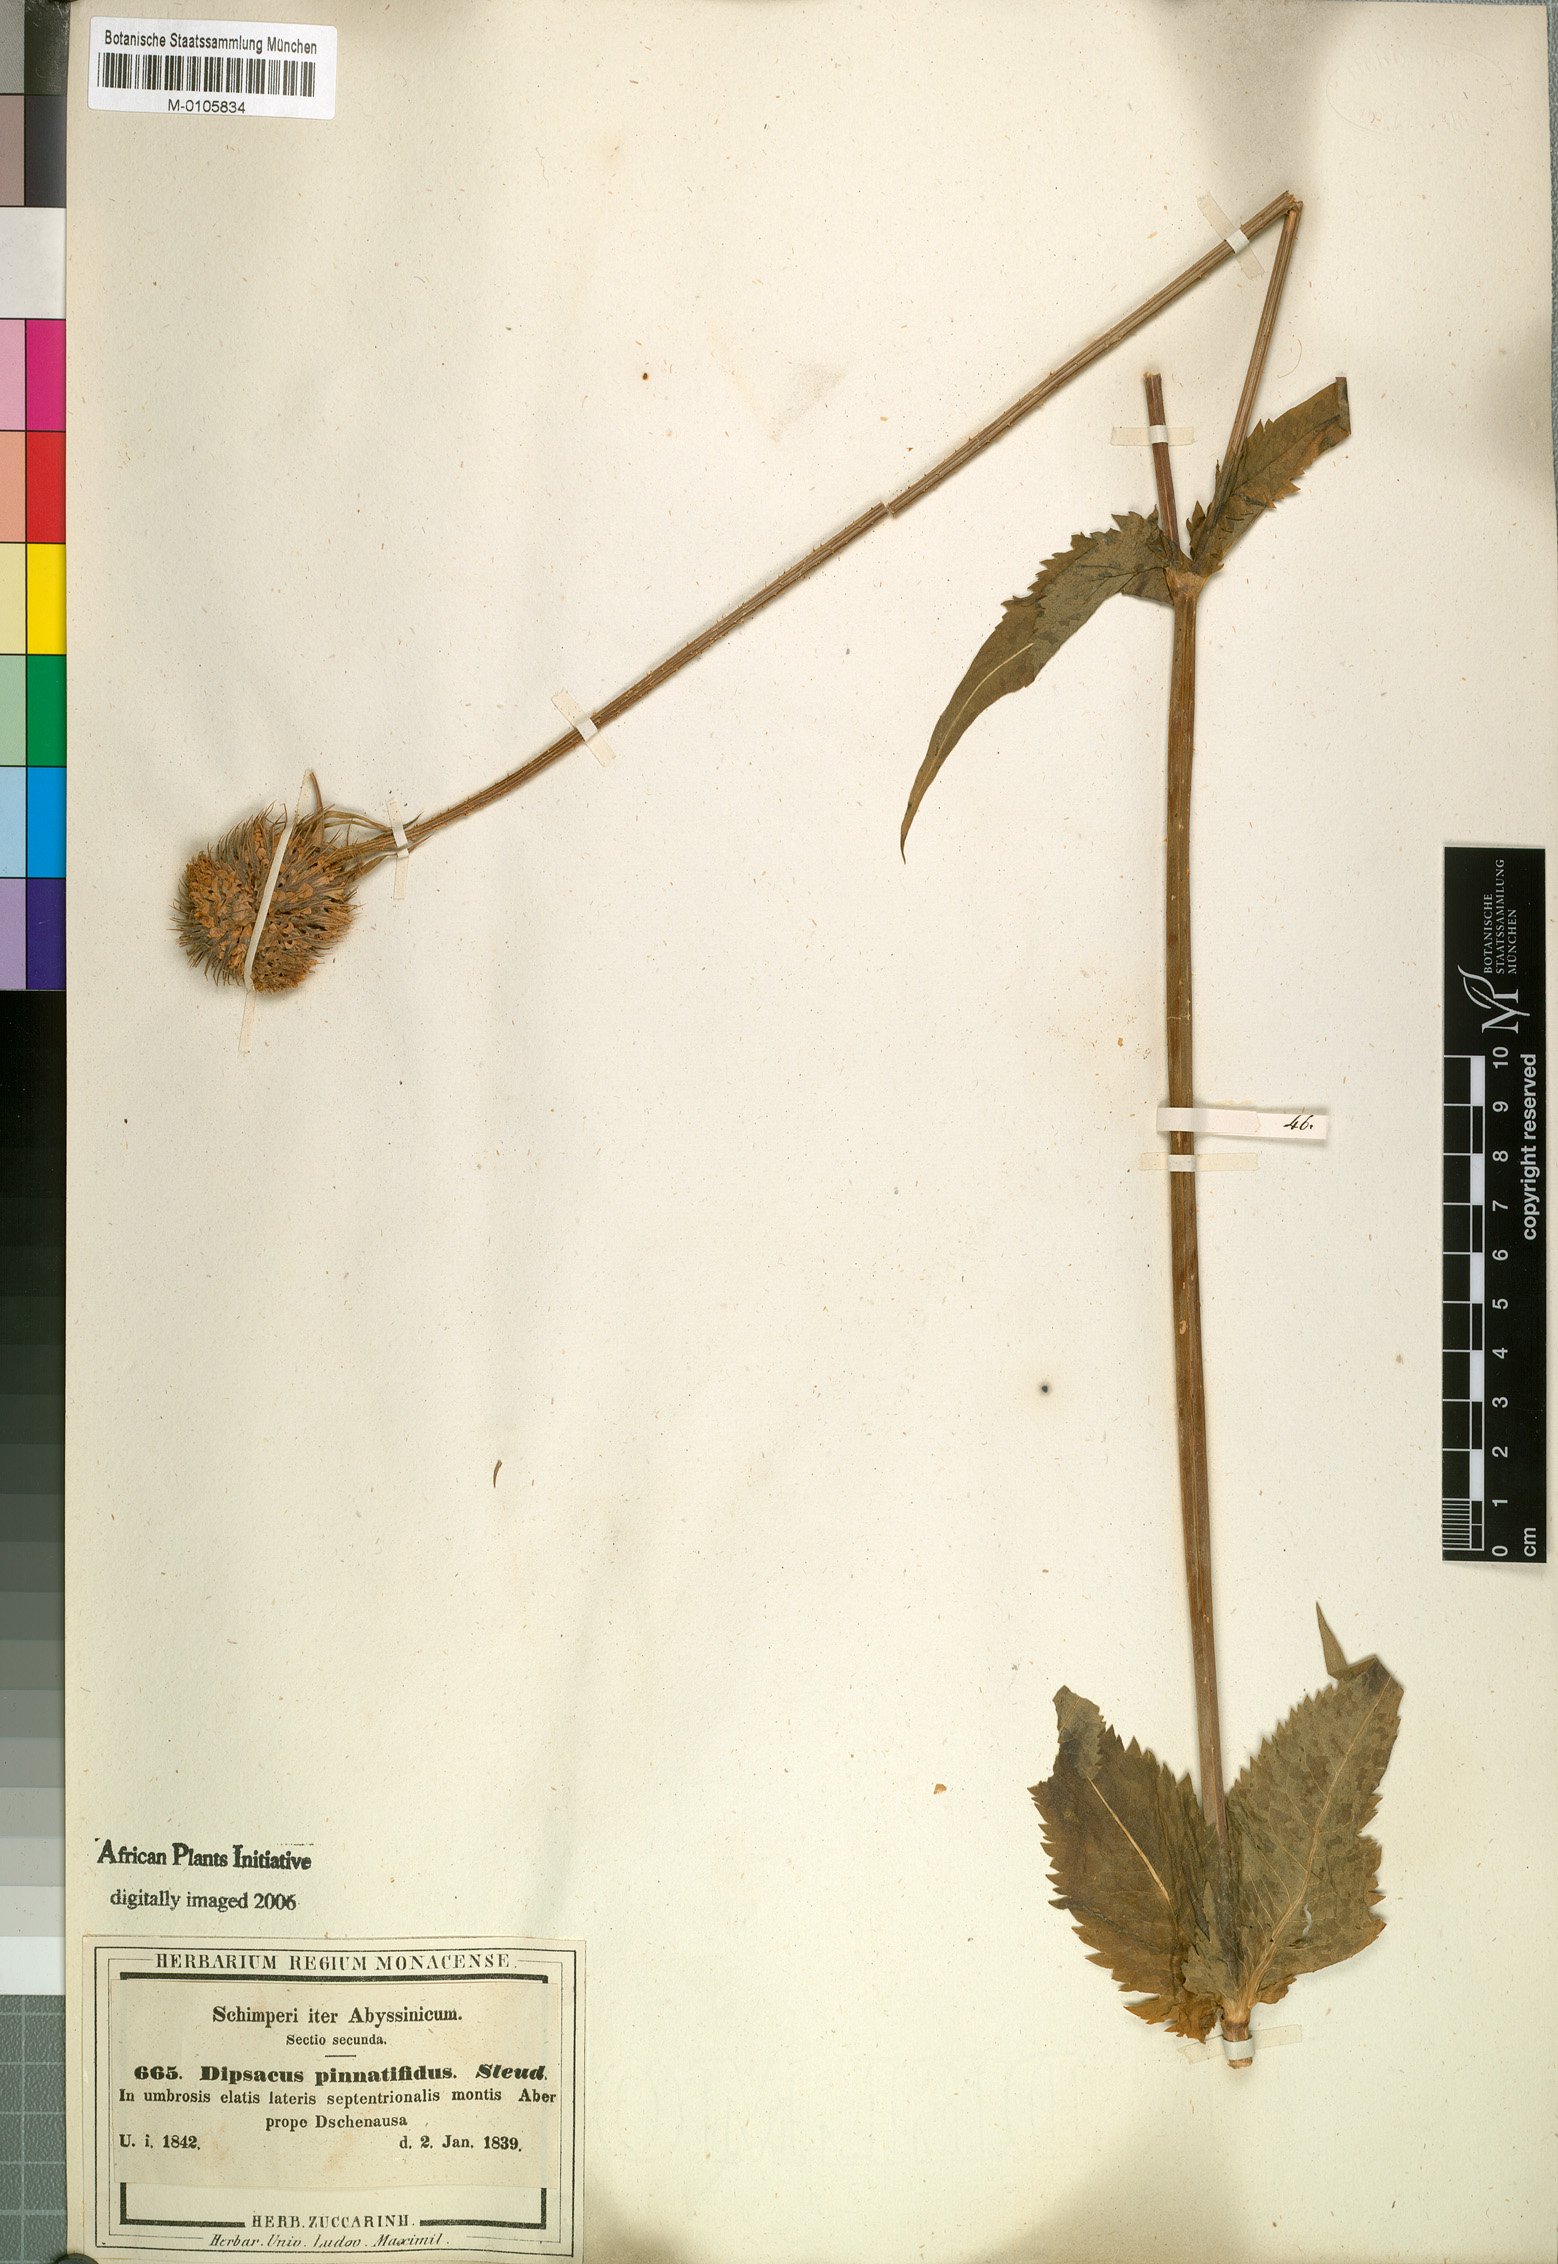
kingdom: Plantae
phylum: Tracheophyta
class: Magnoliopsida
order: Dipsacales
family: Caprifoliaceae
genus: Dipsacus
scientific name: Dipsacus pinnatifidus
